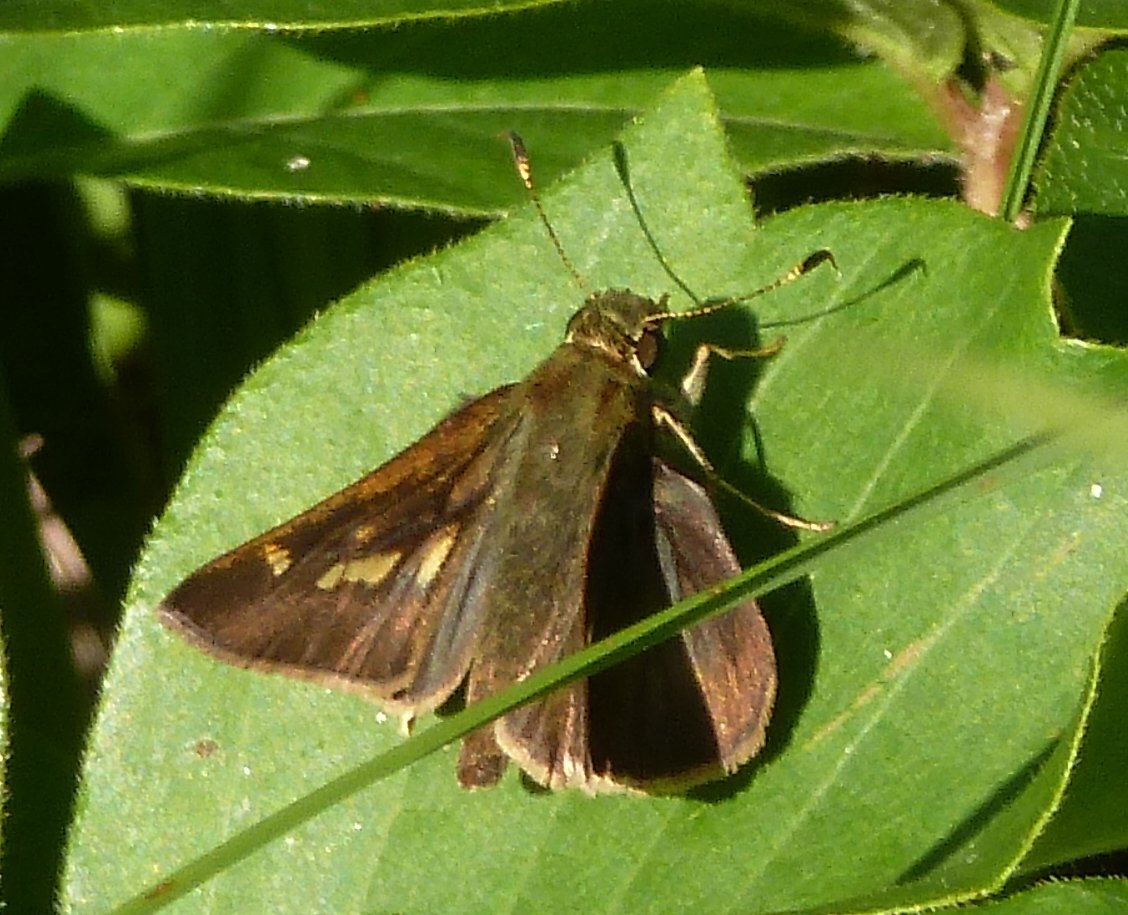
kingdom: Animalia
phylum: Arthropoda
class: Insecta
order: Lepidoptera
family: Hesperiidae
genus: Vernia
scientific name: Vernia verna
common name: Little Glassywing
